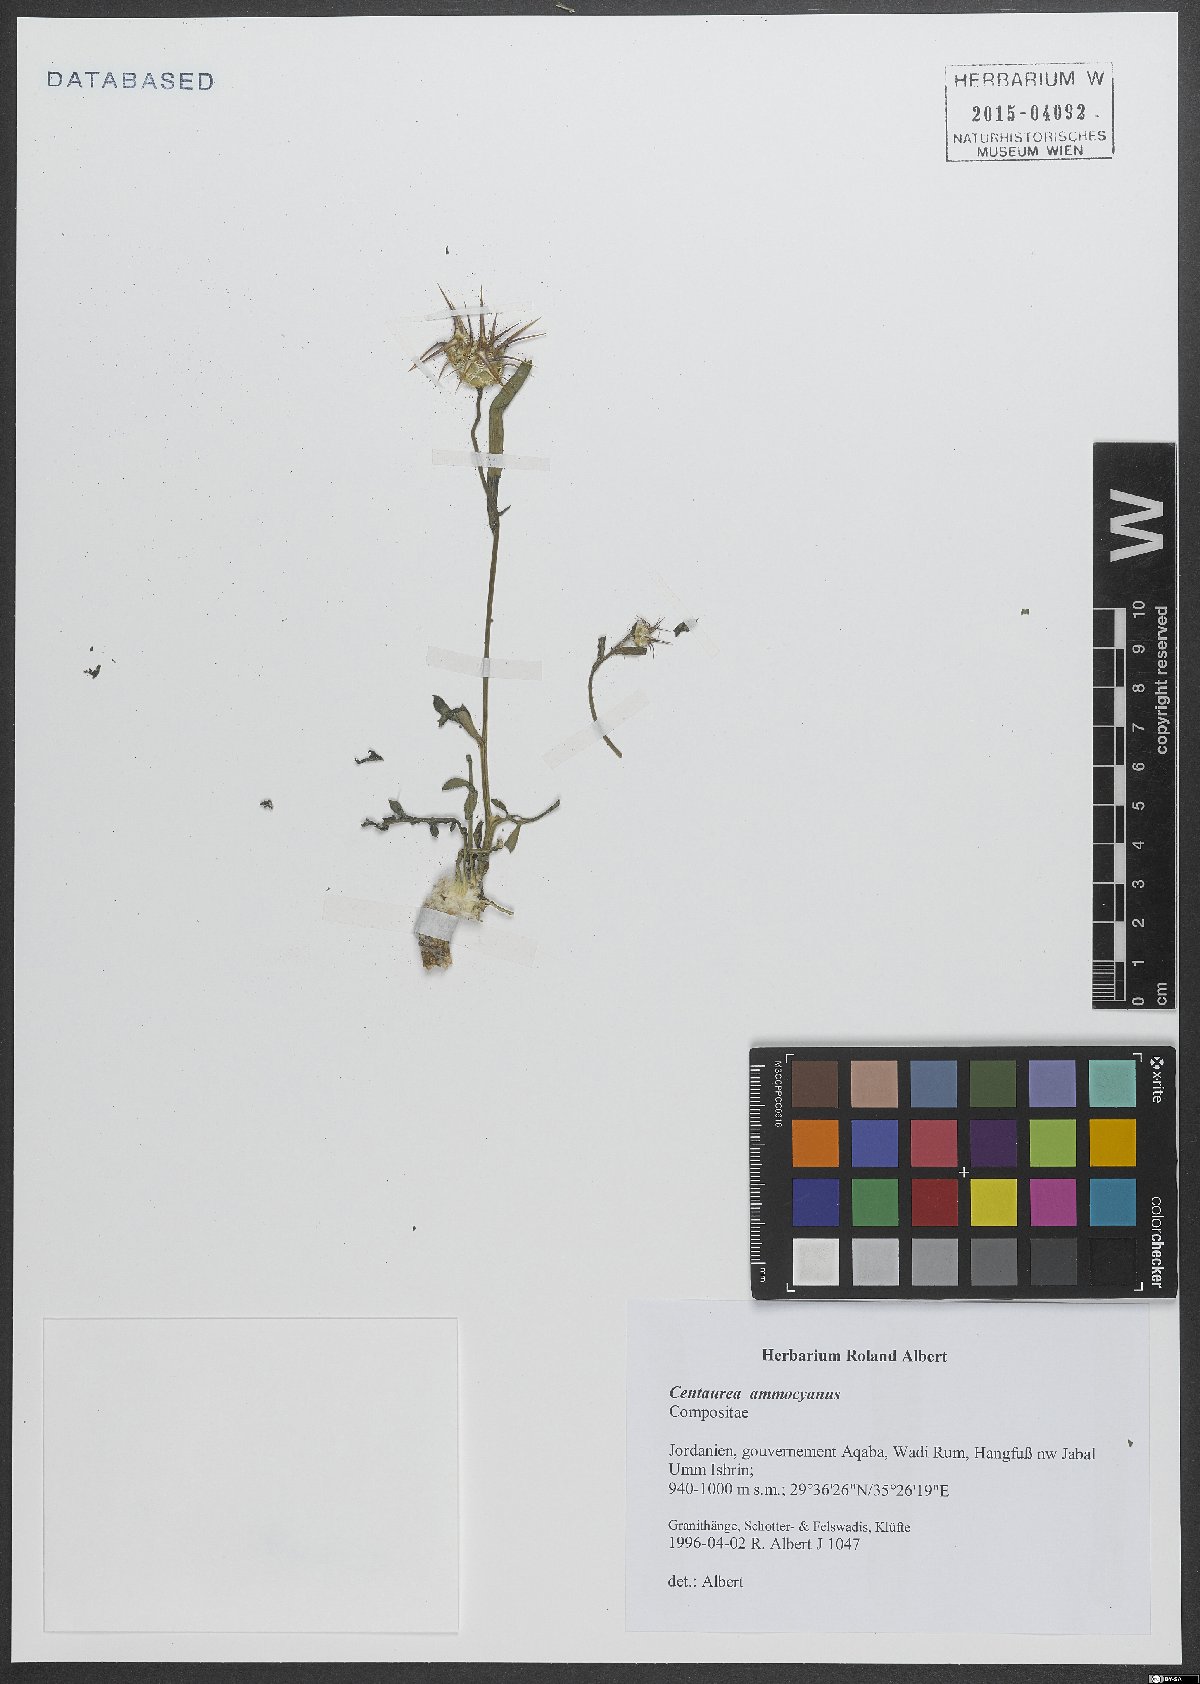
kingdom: Plantae
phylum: Tracheophyta
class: Magnoliopsida
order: Asterales
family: Asteraceae
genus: Centaurea
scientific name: Centaurea ammocyanus
